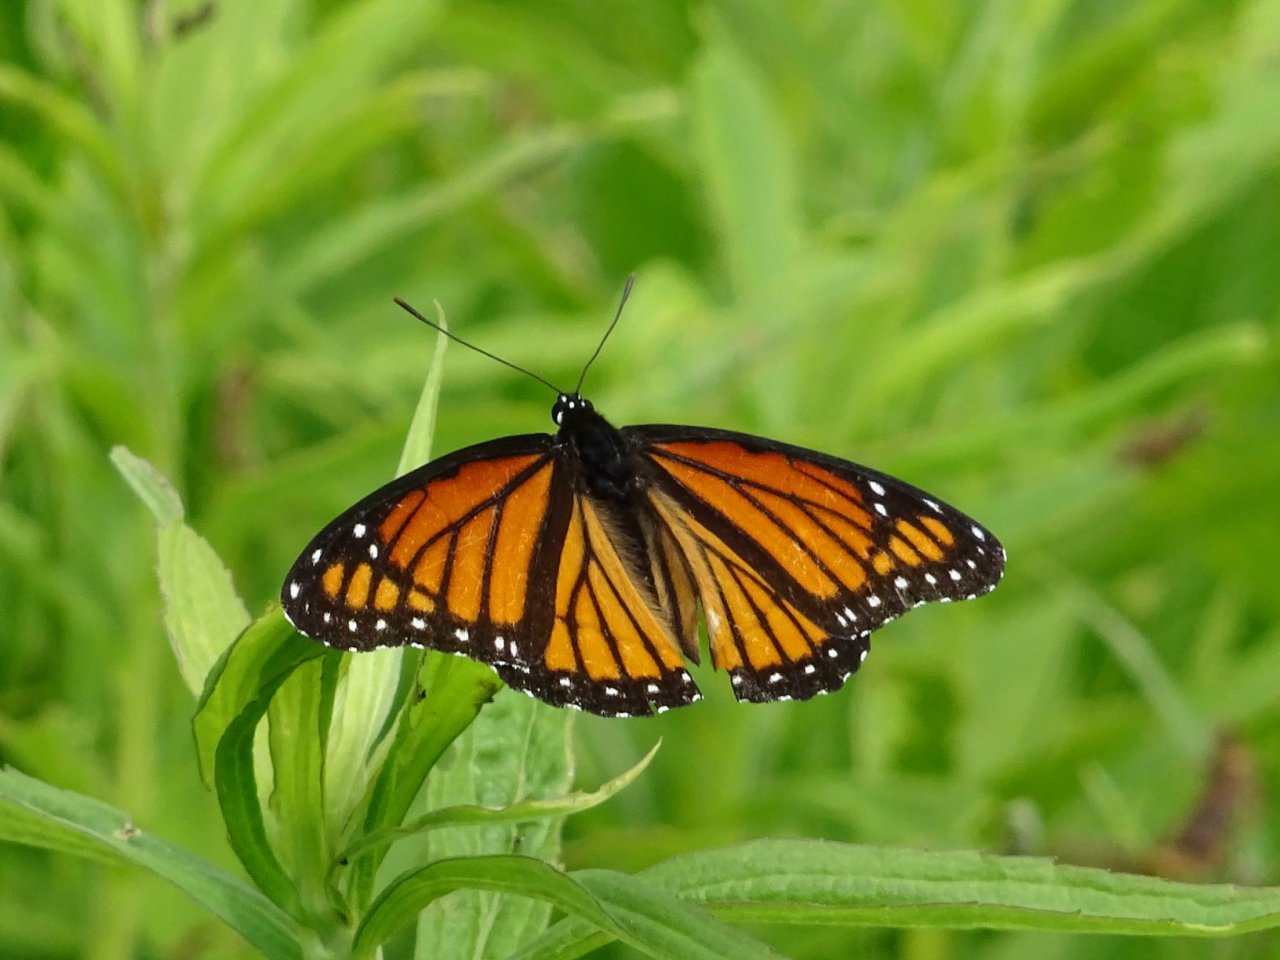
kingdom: Animalia
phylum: Arthropoda
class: Insecta
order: Lepidoptera
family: Nymphalidae
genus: Limenitis
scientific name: Limenitis archippus
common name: Viceroy
